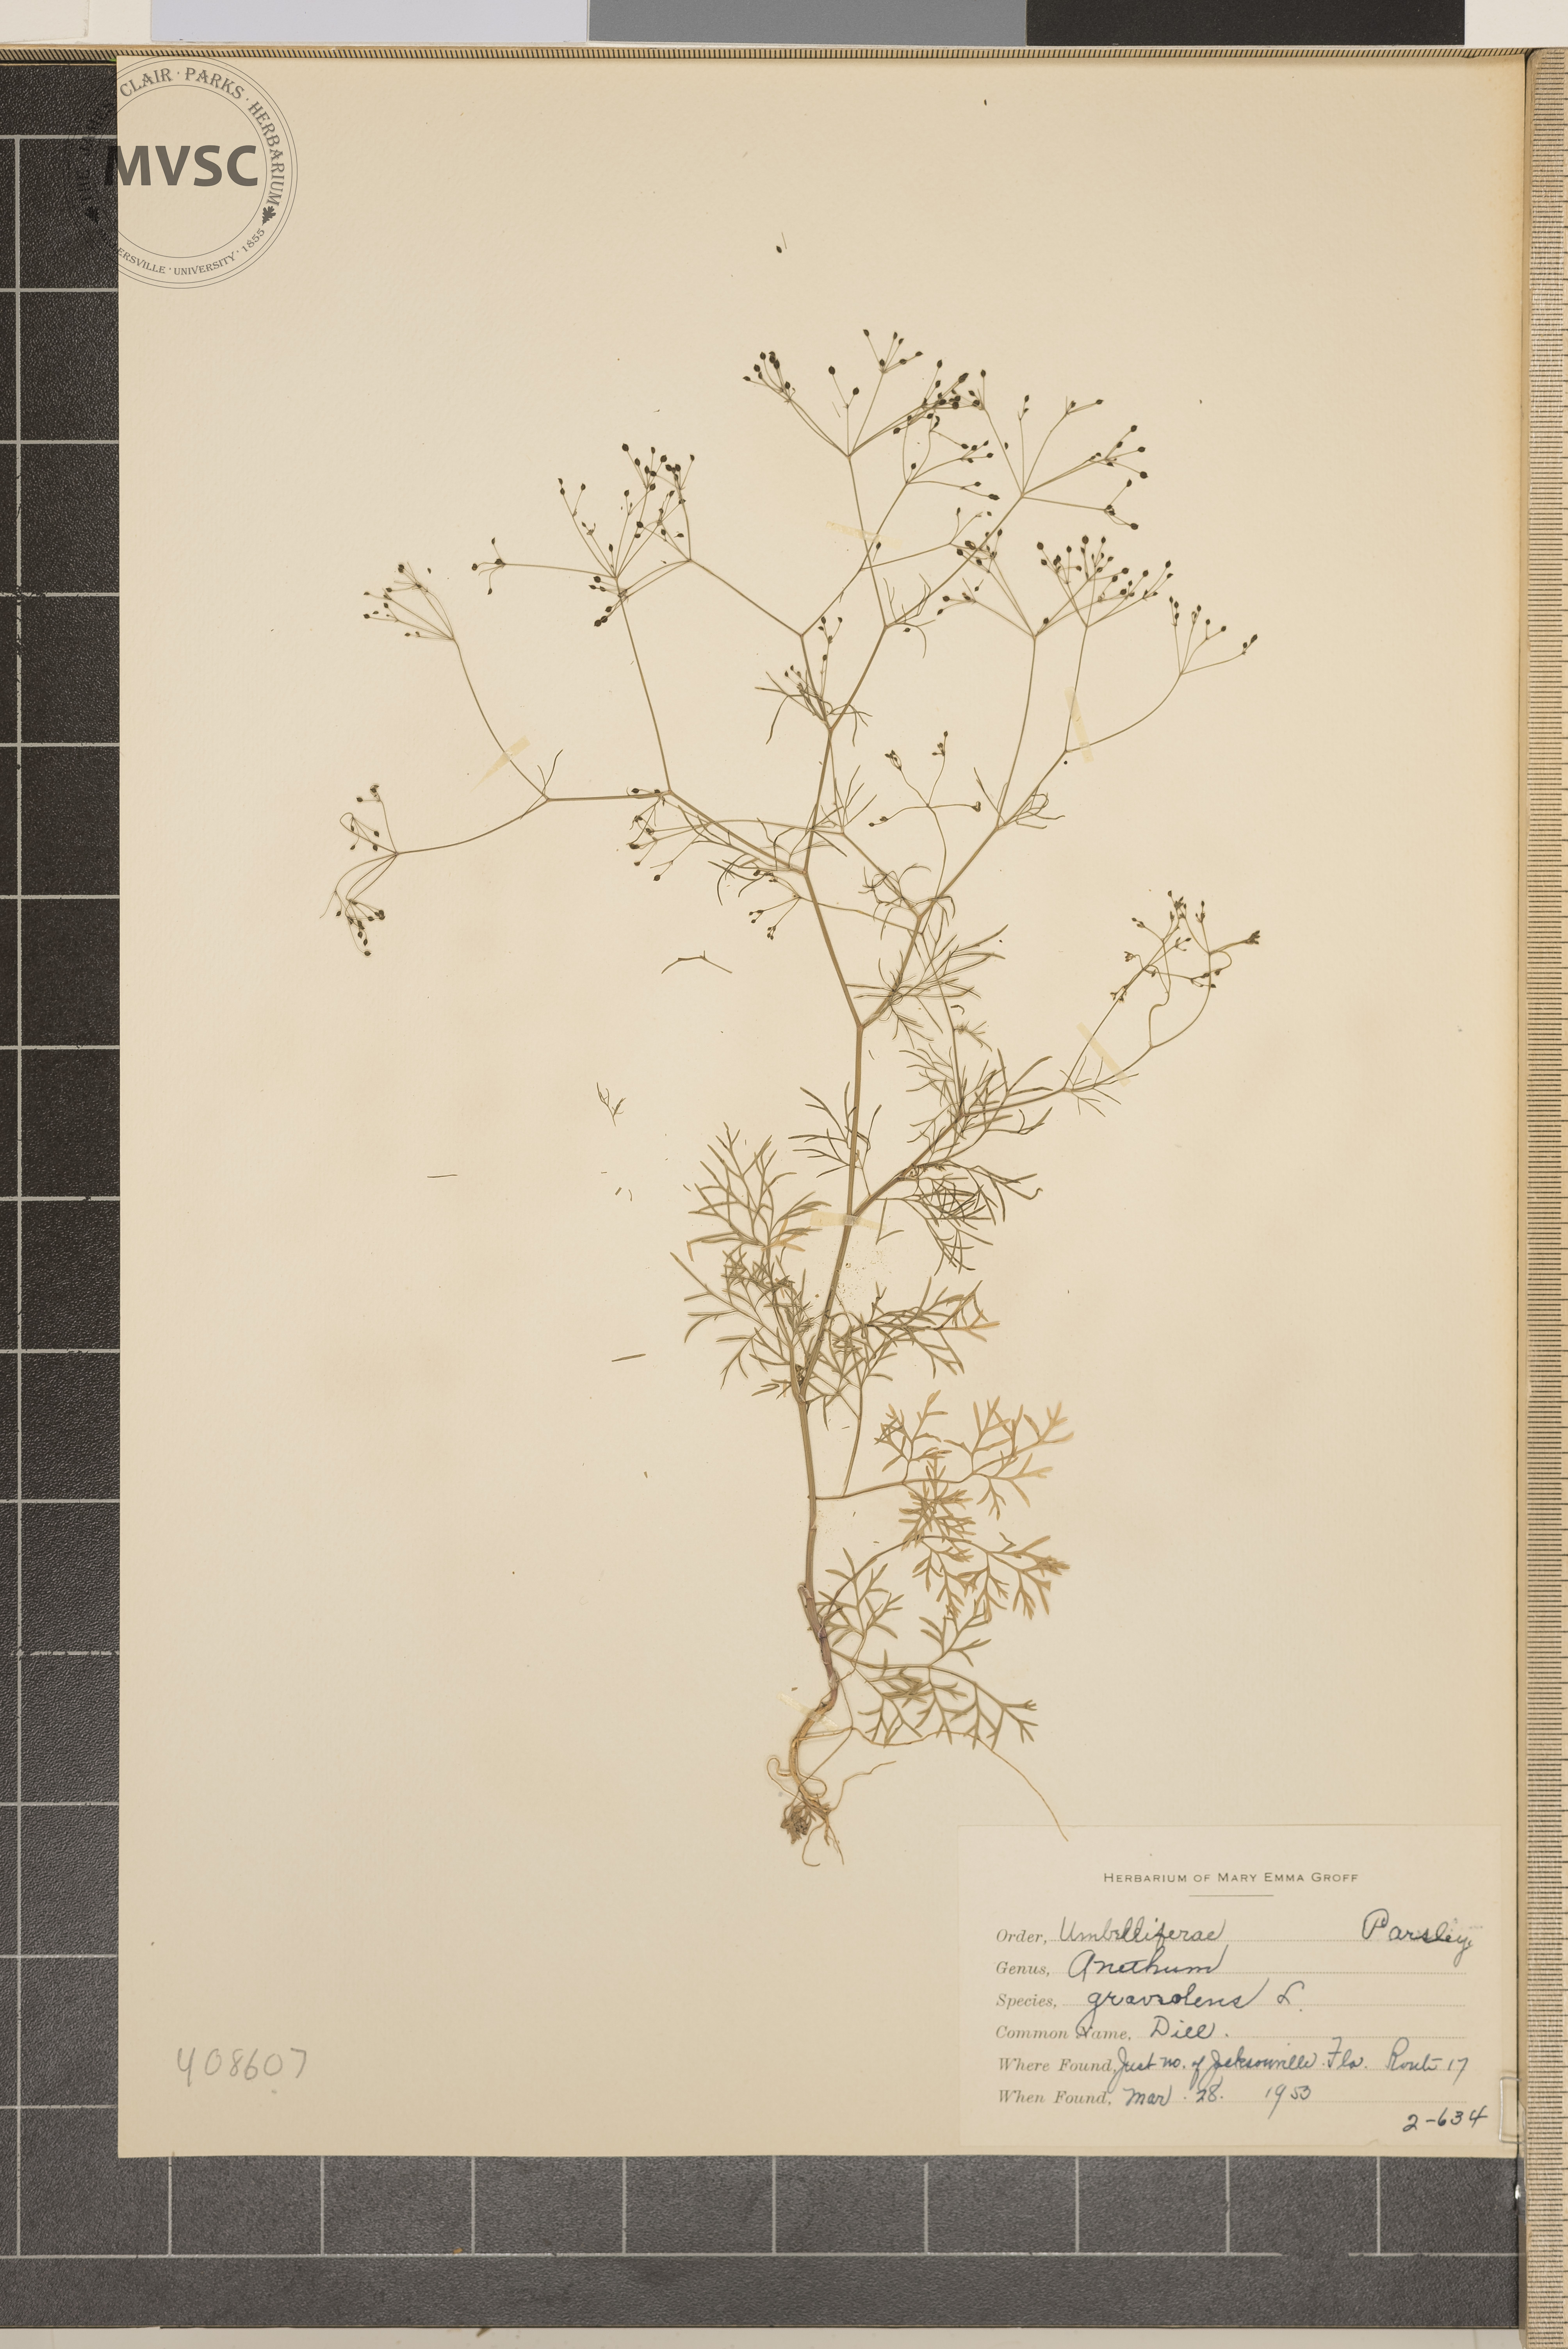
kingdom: Plantae
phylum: Tracheophyta
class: Magnoliopsida
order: Apiales
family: Apiaceae
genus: Anethum
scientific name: Anethum graveolens
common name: Dill
